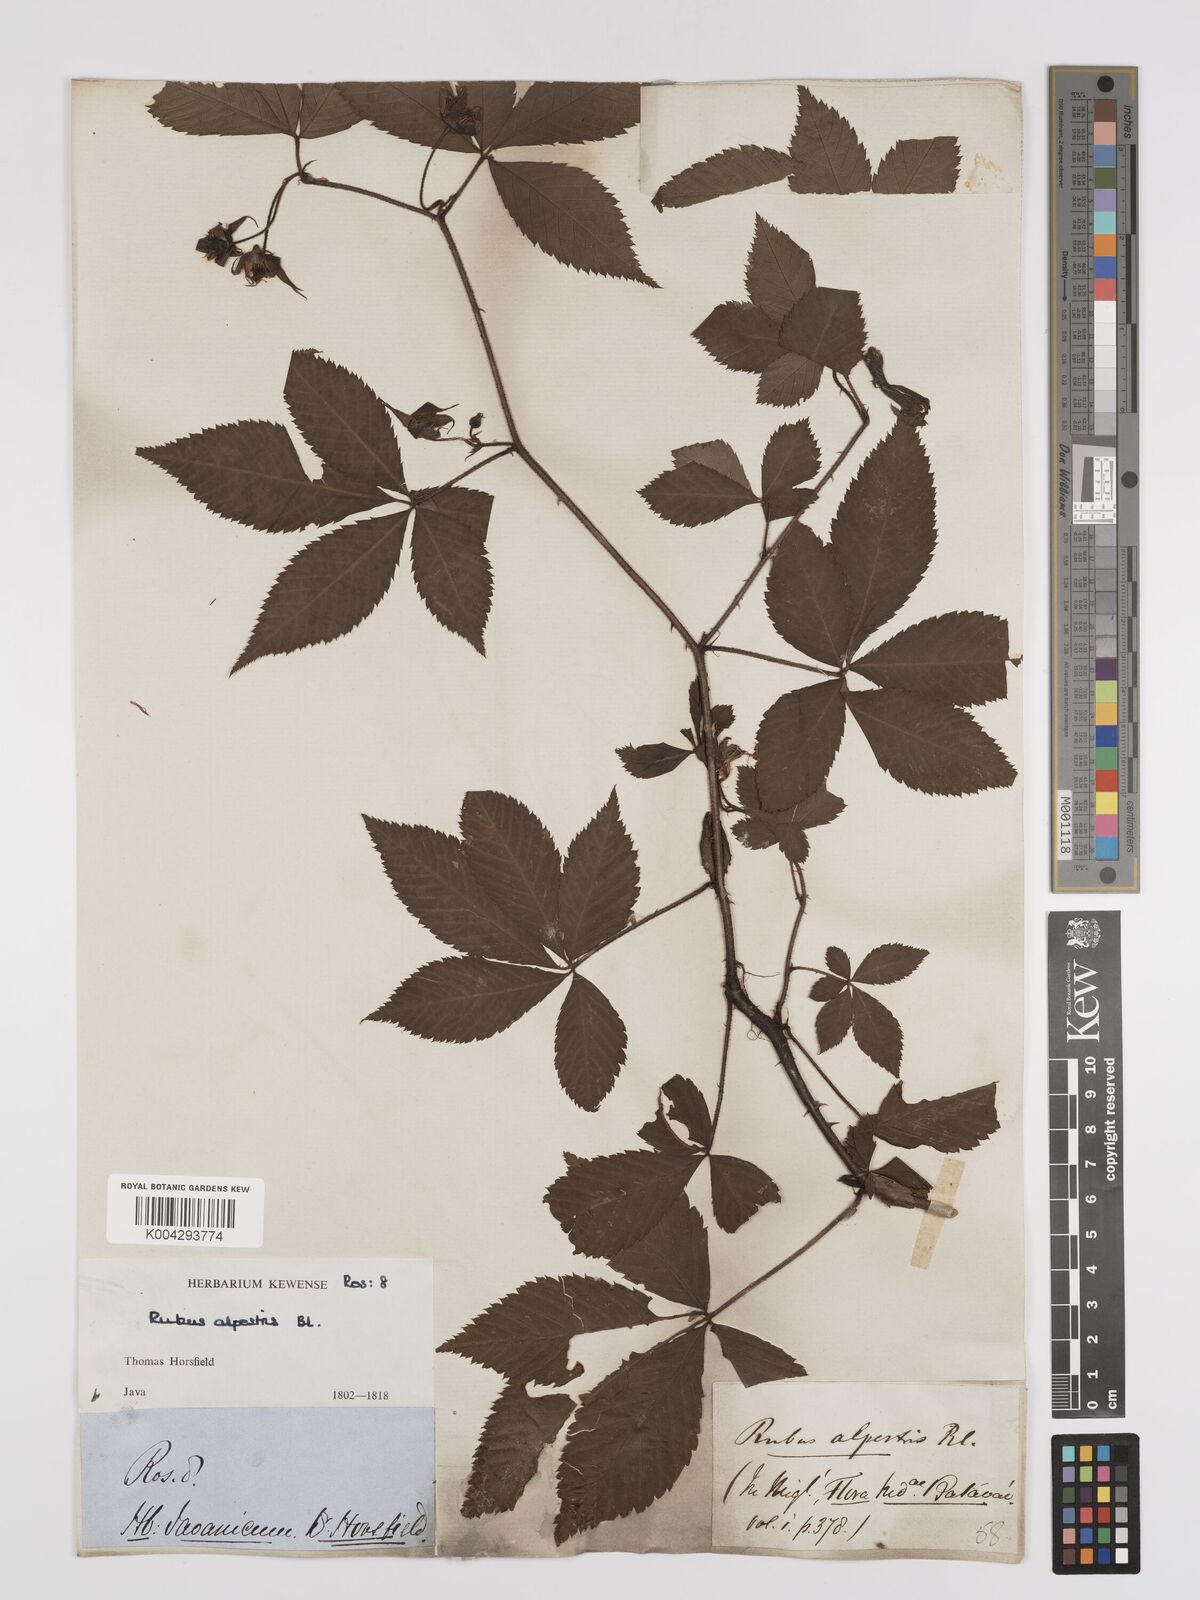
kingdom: Plantae
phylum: Tracheophyta
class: Magnoliopsida
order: Rosales
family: Rosaceae
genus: Rubus
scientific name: Rubus alpestris
